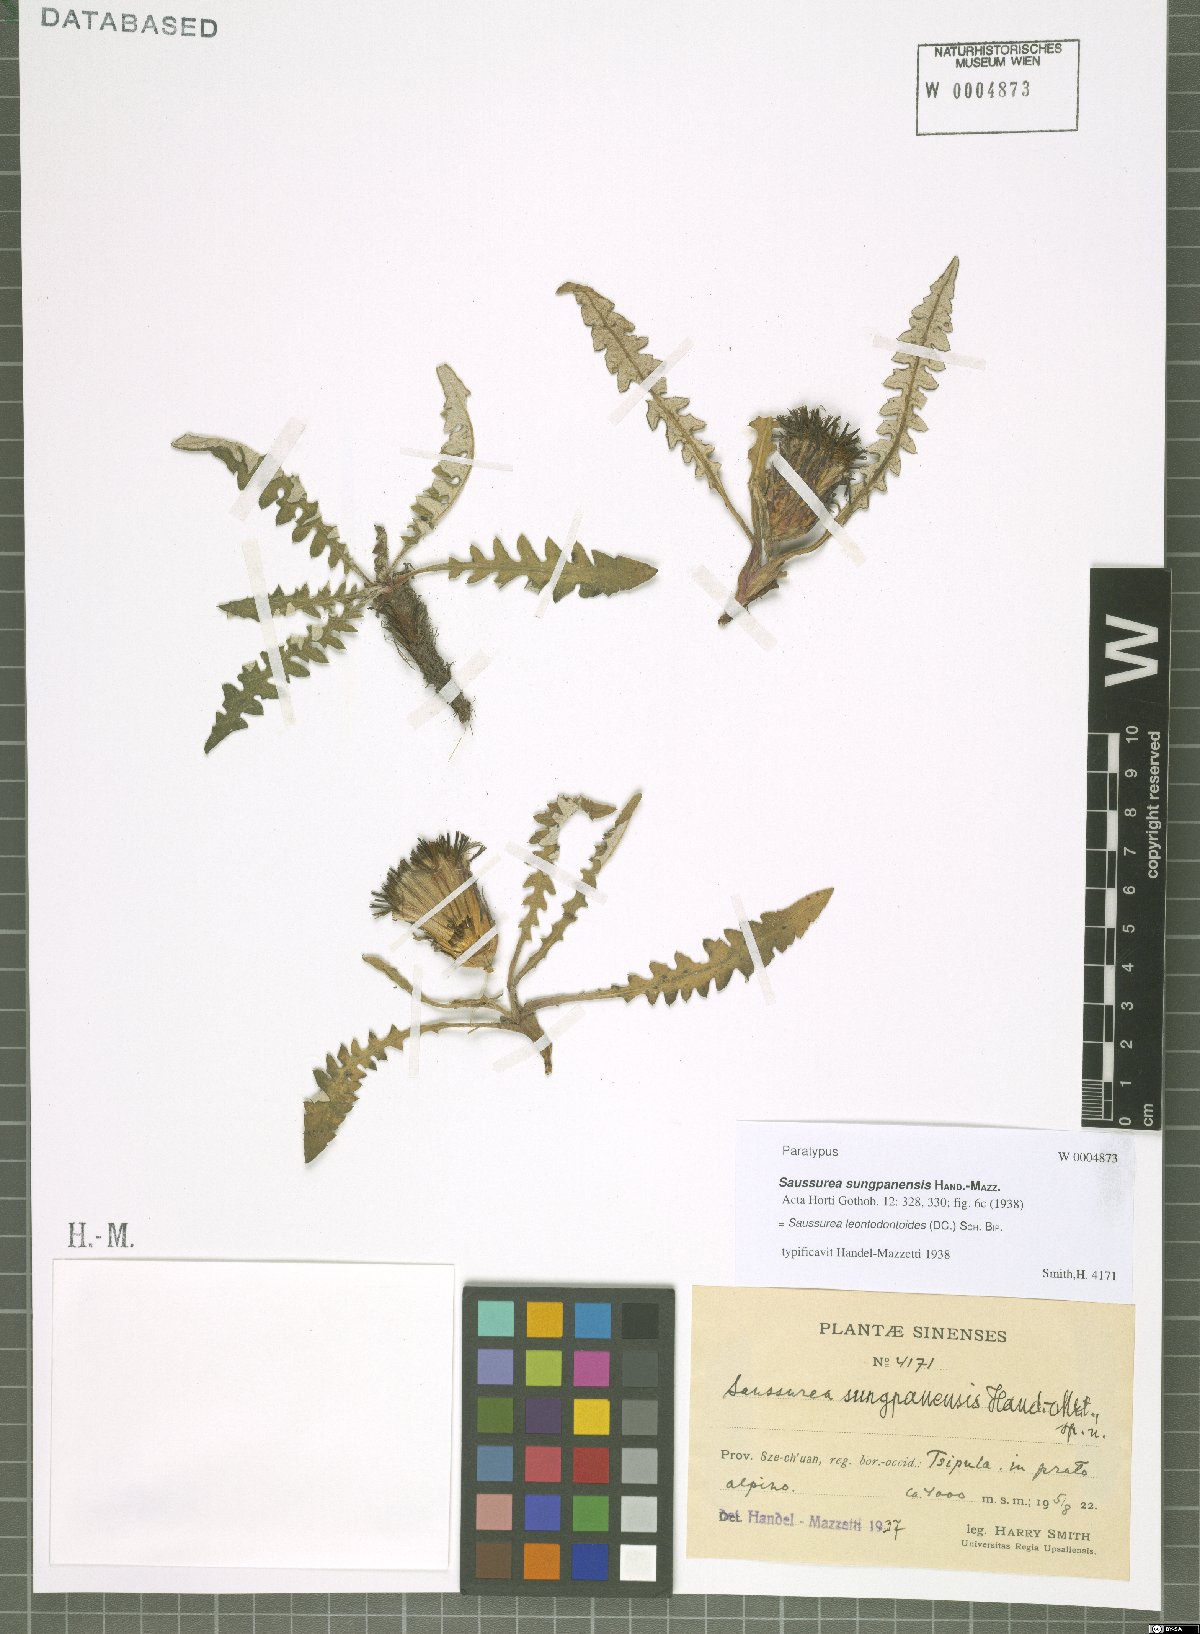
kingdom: Plantae
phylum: Tracheophyta
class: Magnoliopsida
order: Asterales
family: Asteraceae
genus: Saussurea
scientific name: Saussurea leontodontoides
